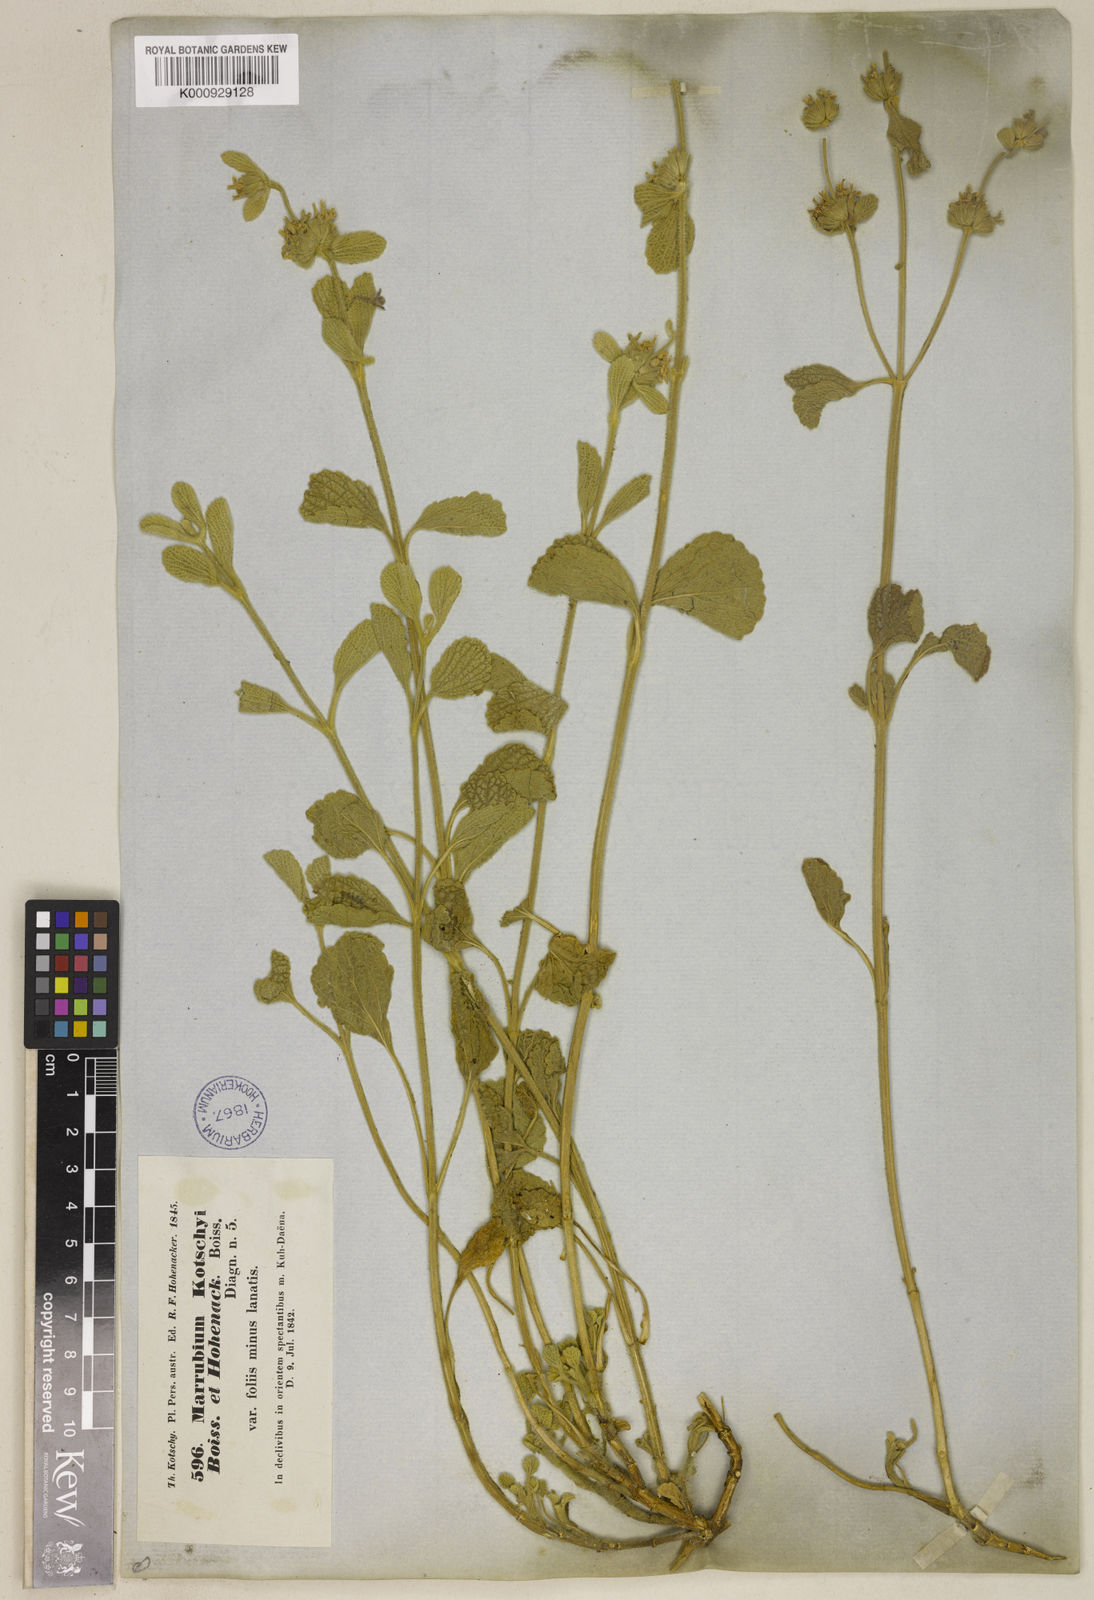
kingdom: Plantae
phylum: Tracheophyta
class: Magnoliopsida
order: Lamiales
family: Lamiaceae
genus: Marrubium
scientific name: Marrubium astracanicum
